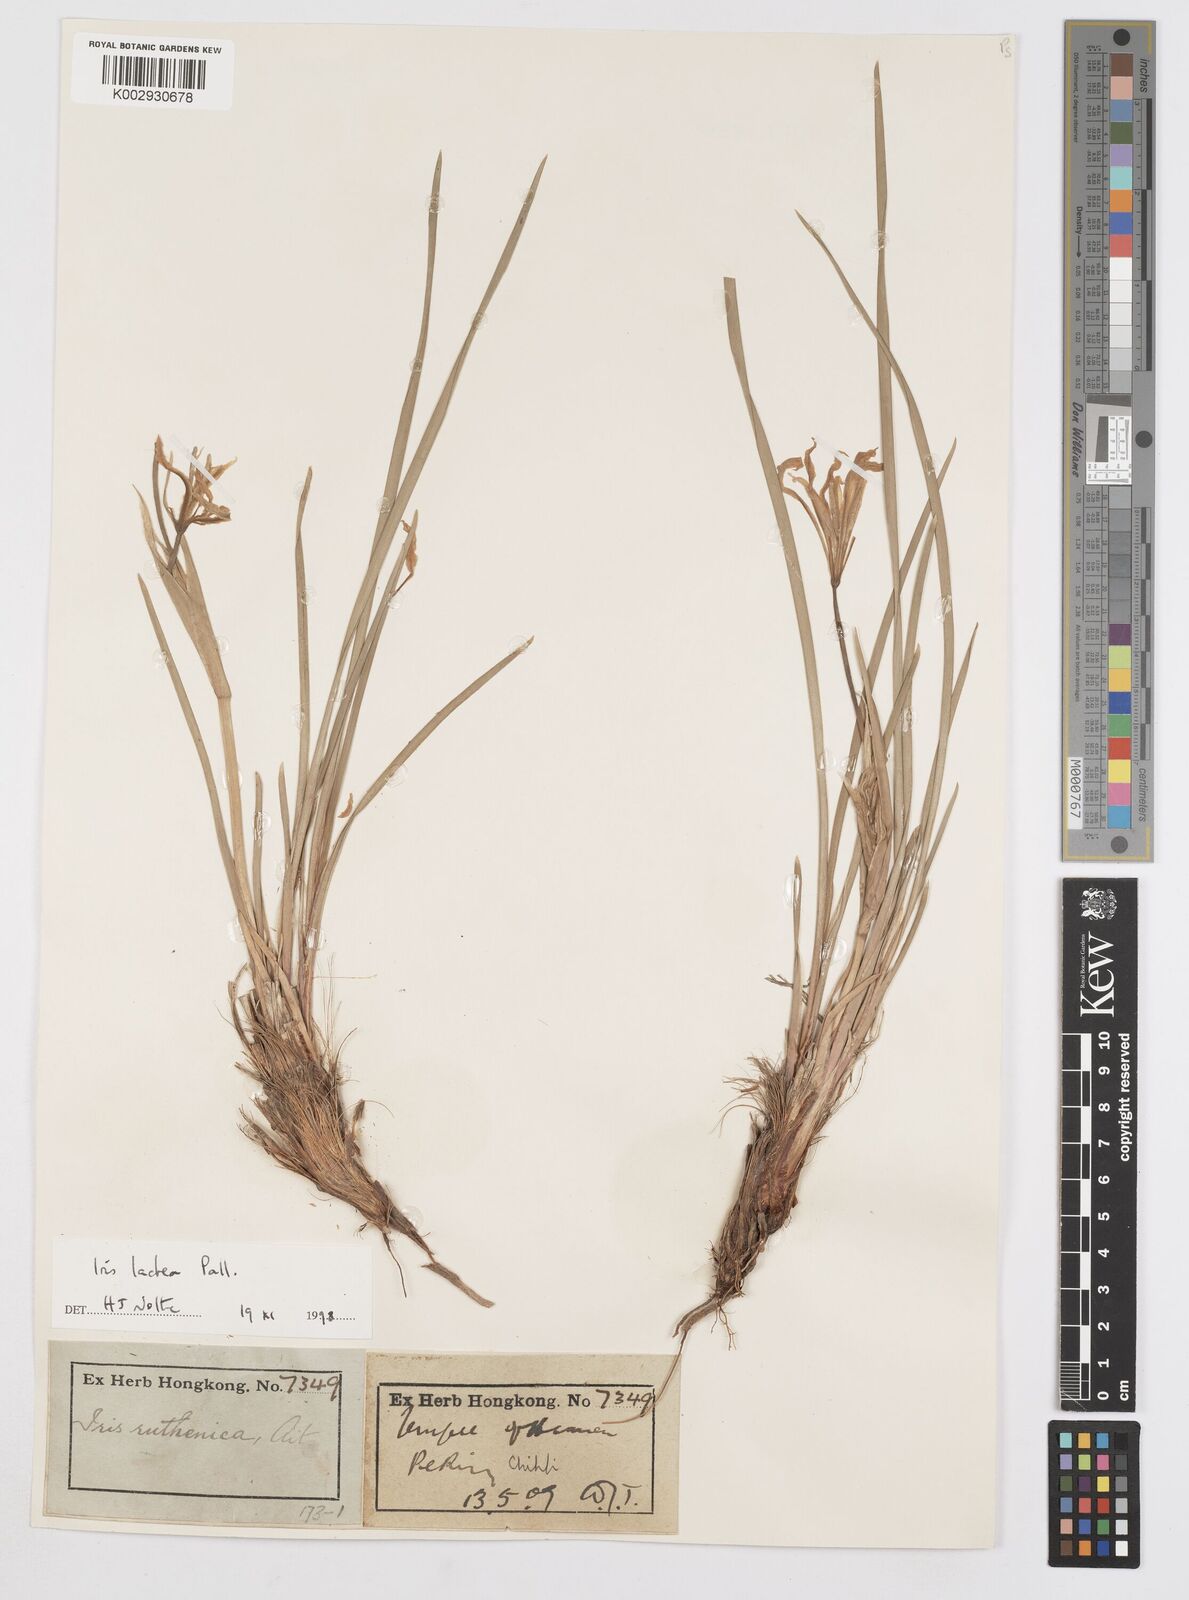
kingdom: Plantae
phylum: Tracheophyta
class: Liliopsida
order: Asparagales
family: Iridaceae
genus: Iris
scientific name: Iris ensata
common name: Beaked iris
